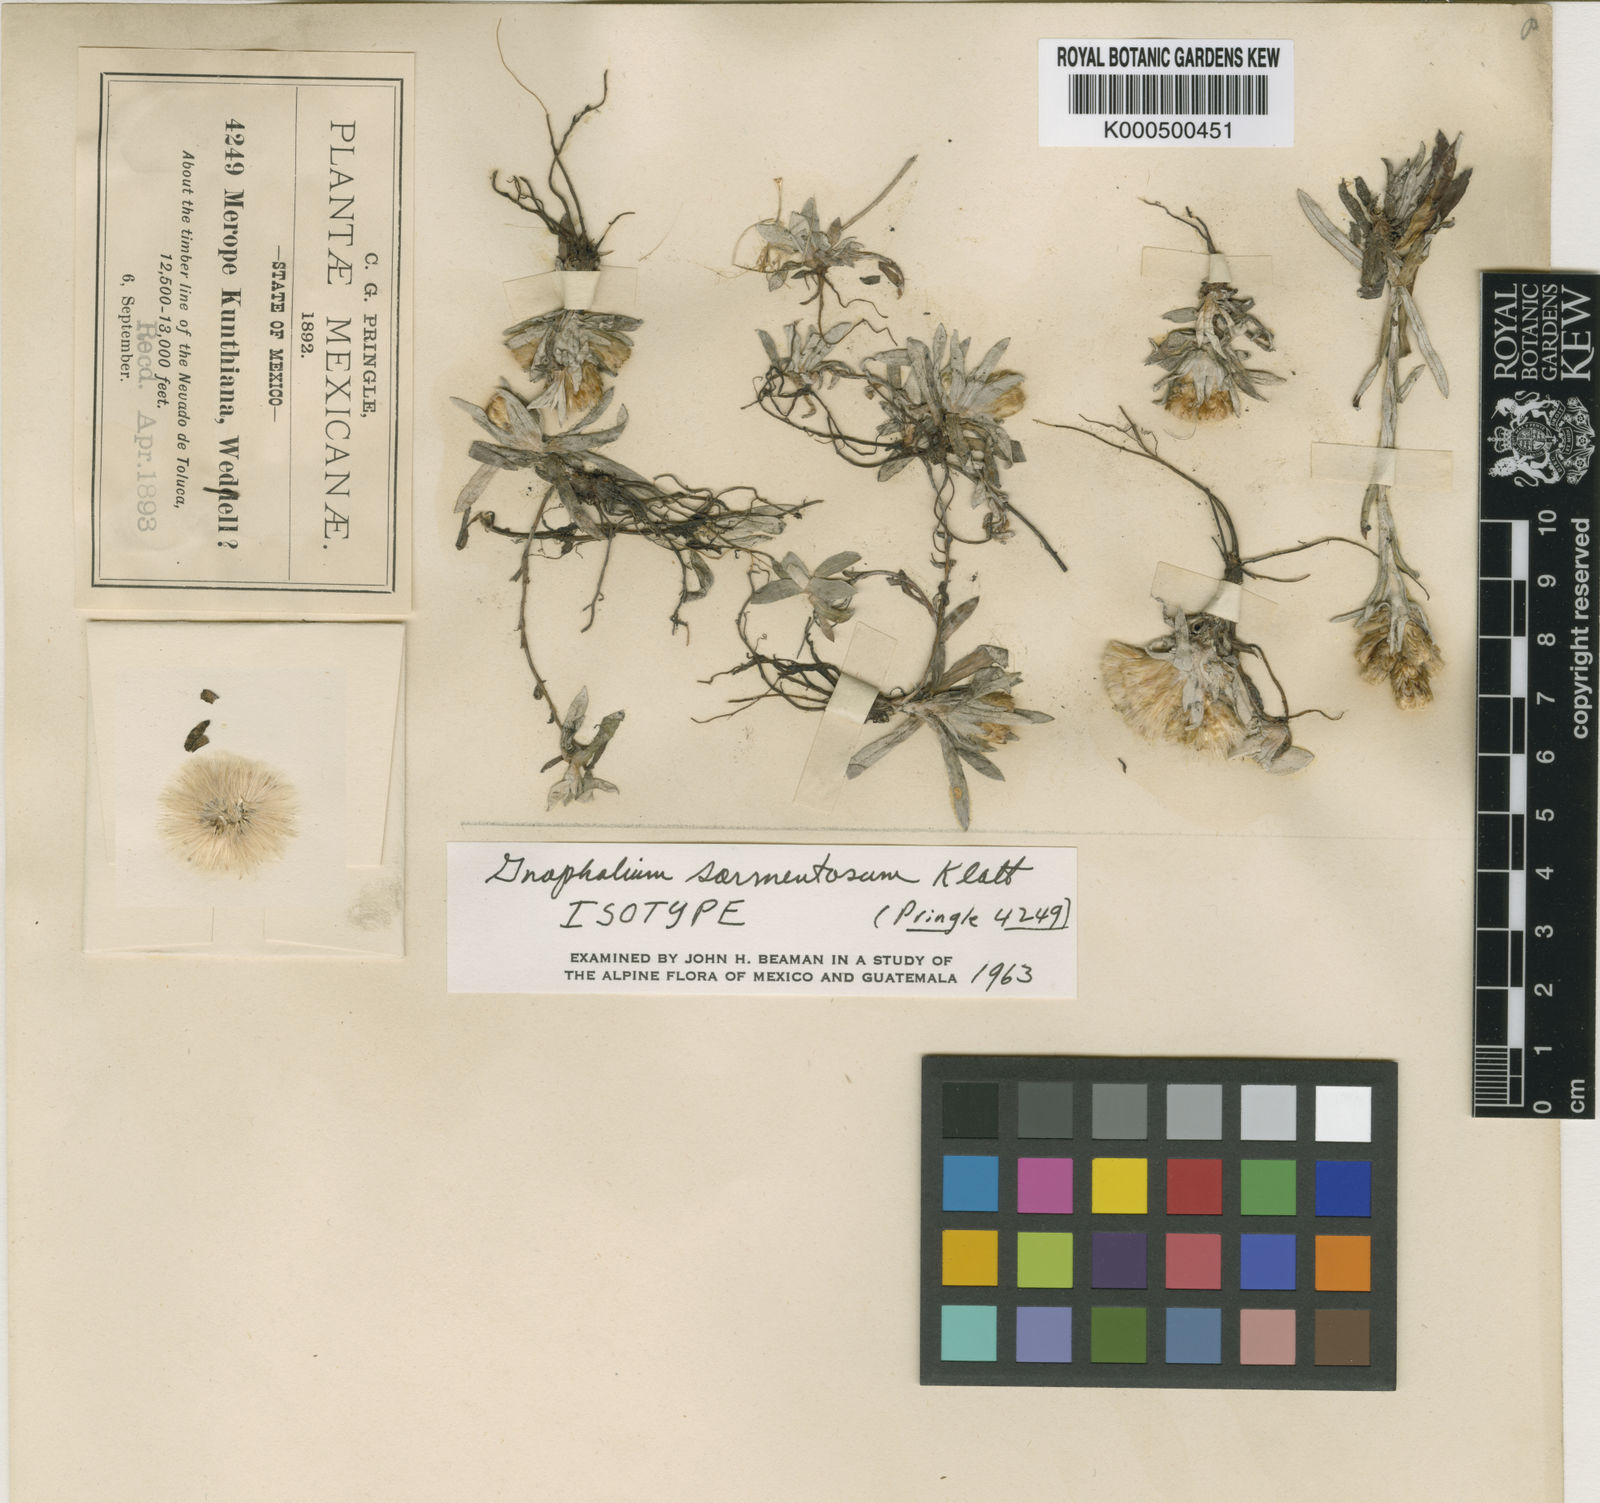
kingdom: Plantae
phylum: Tracheophyta
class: Magnoliopsida
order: Asterales
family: Asteraceae
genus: Mexerion
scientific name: Mexerion sarmentosum
